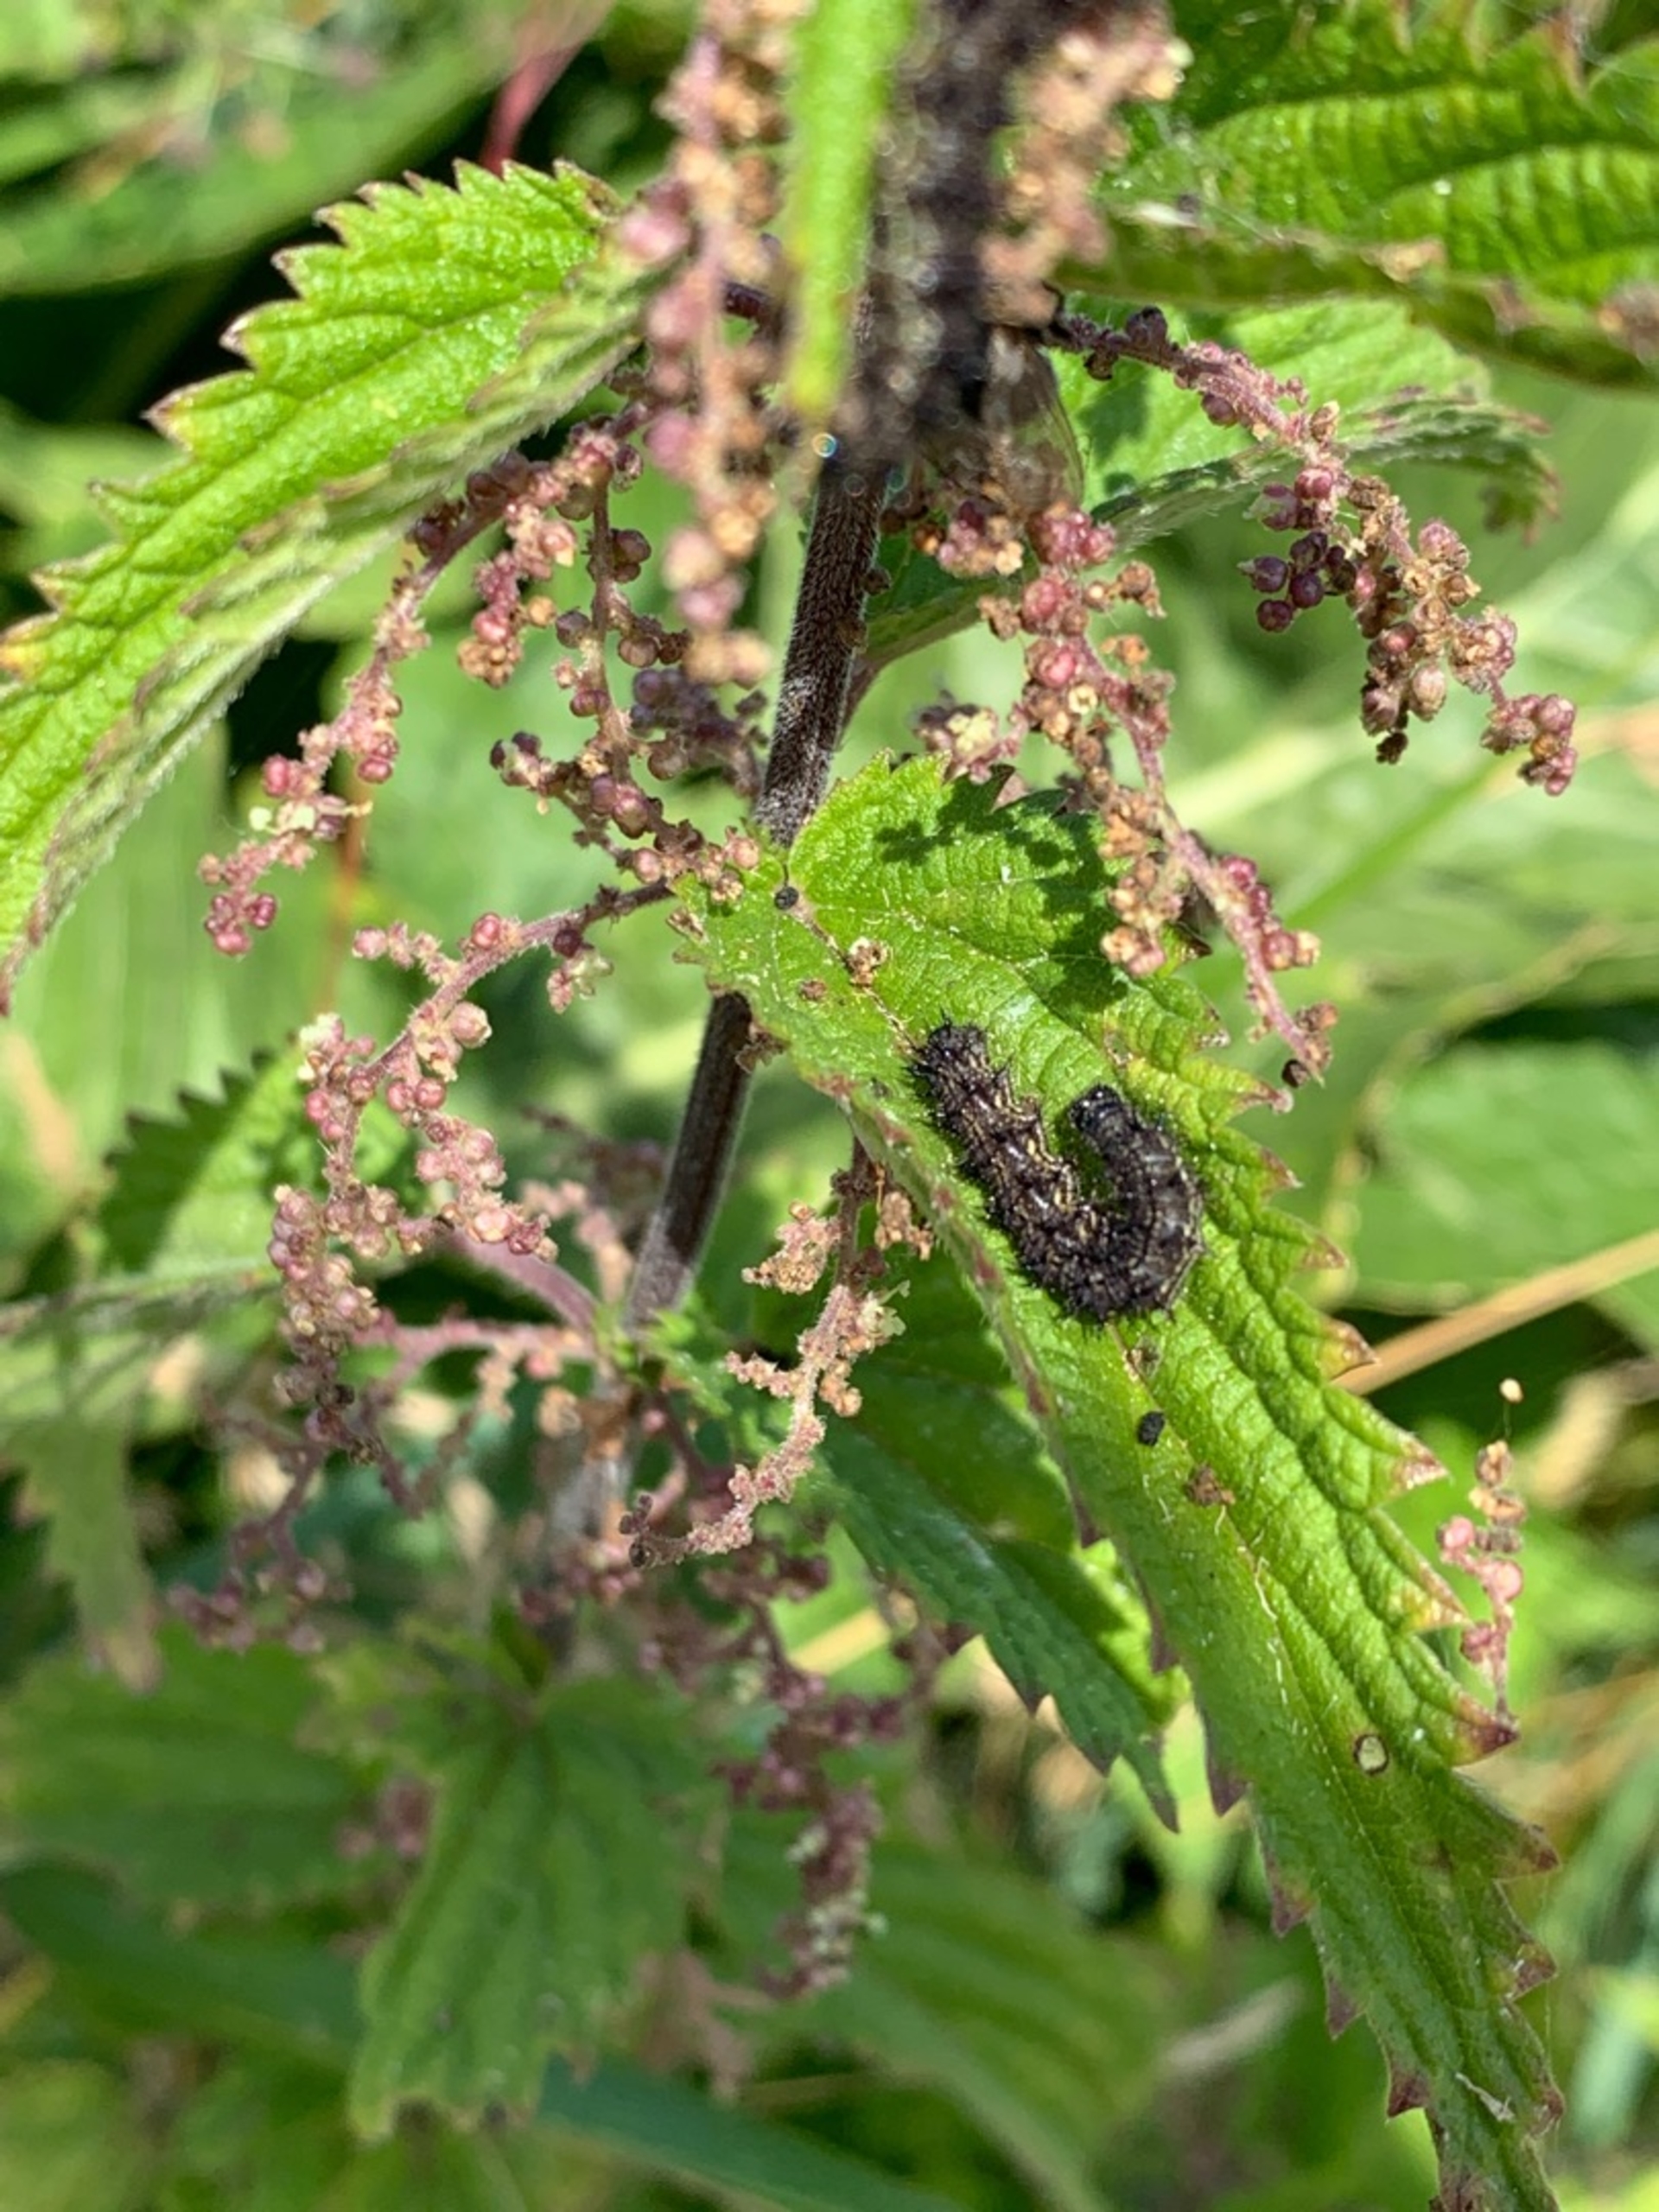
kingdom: Animalia
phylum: Arthropoda
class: Insecta
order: Lepidoptera
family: Nymphalidae
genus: Aglais
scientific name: Aglais urticae
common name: Nældens takvinge
